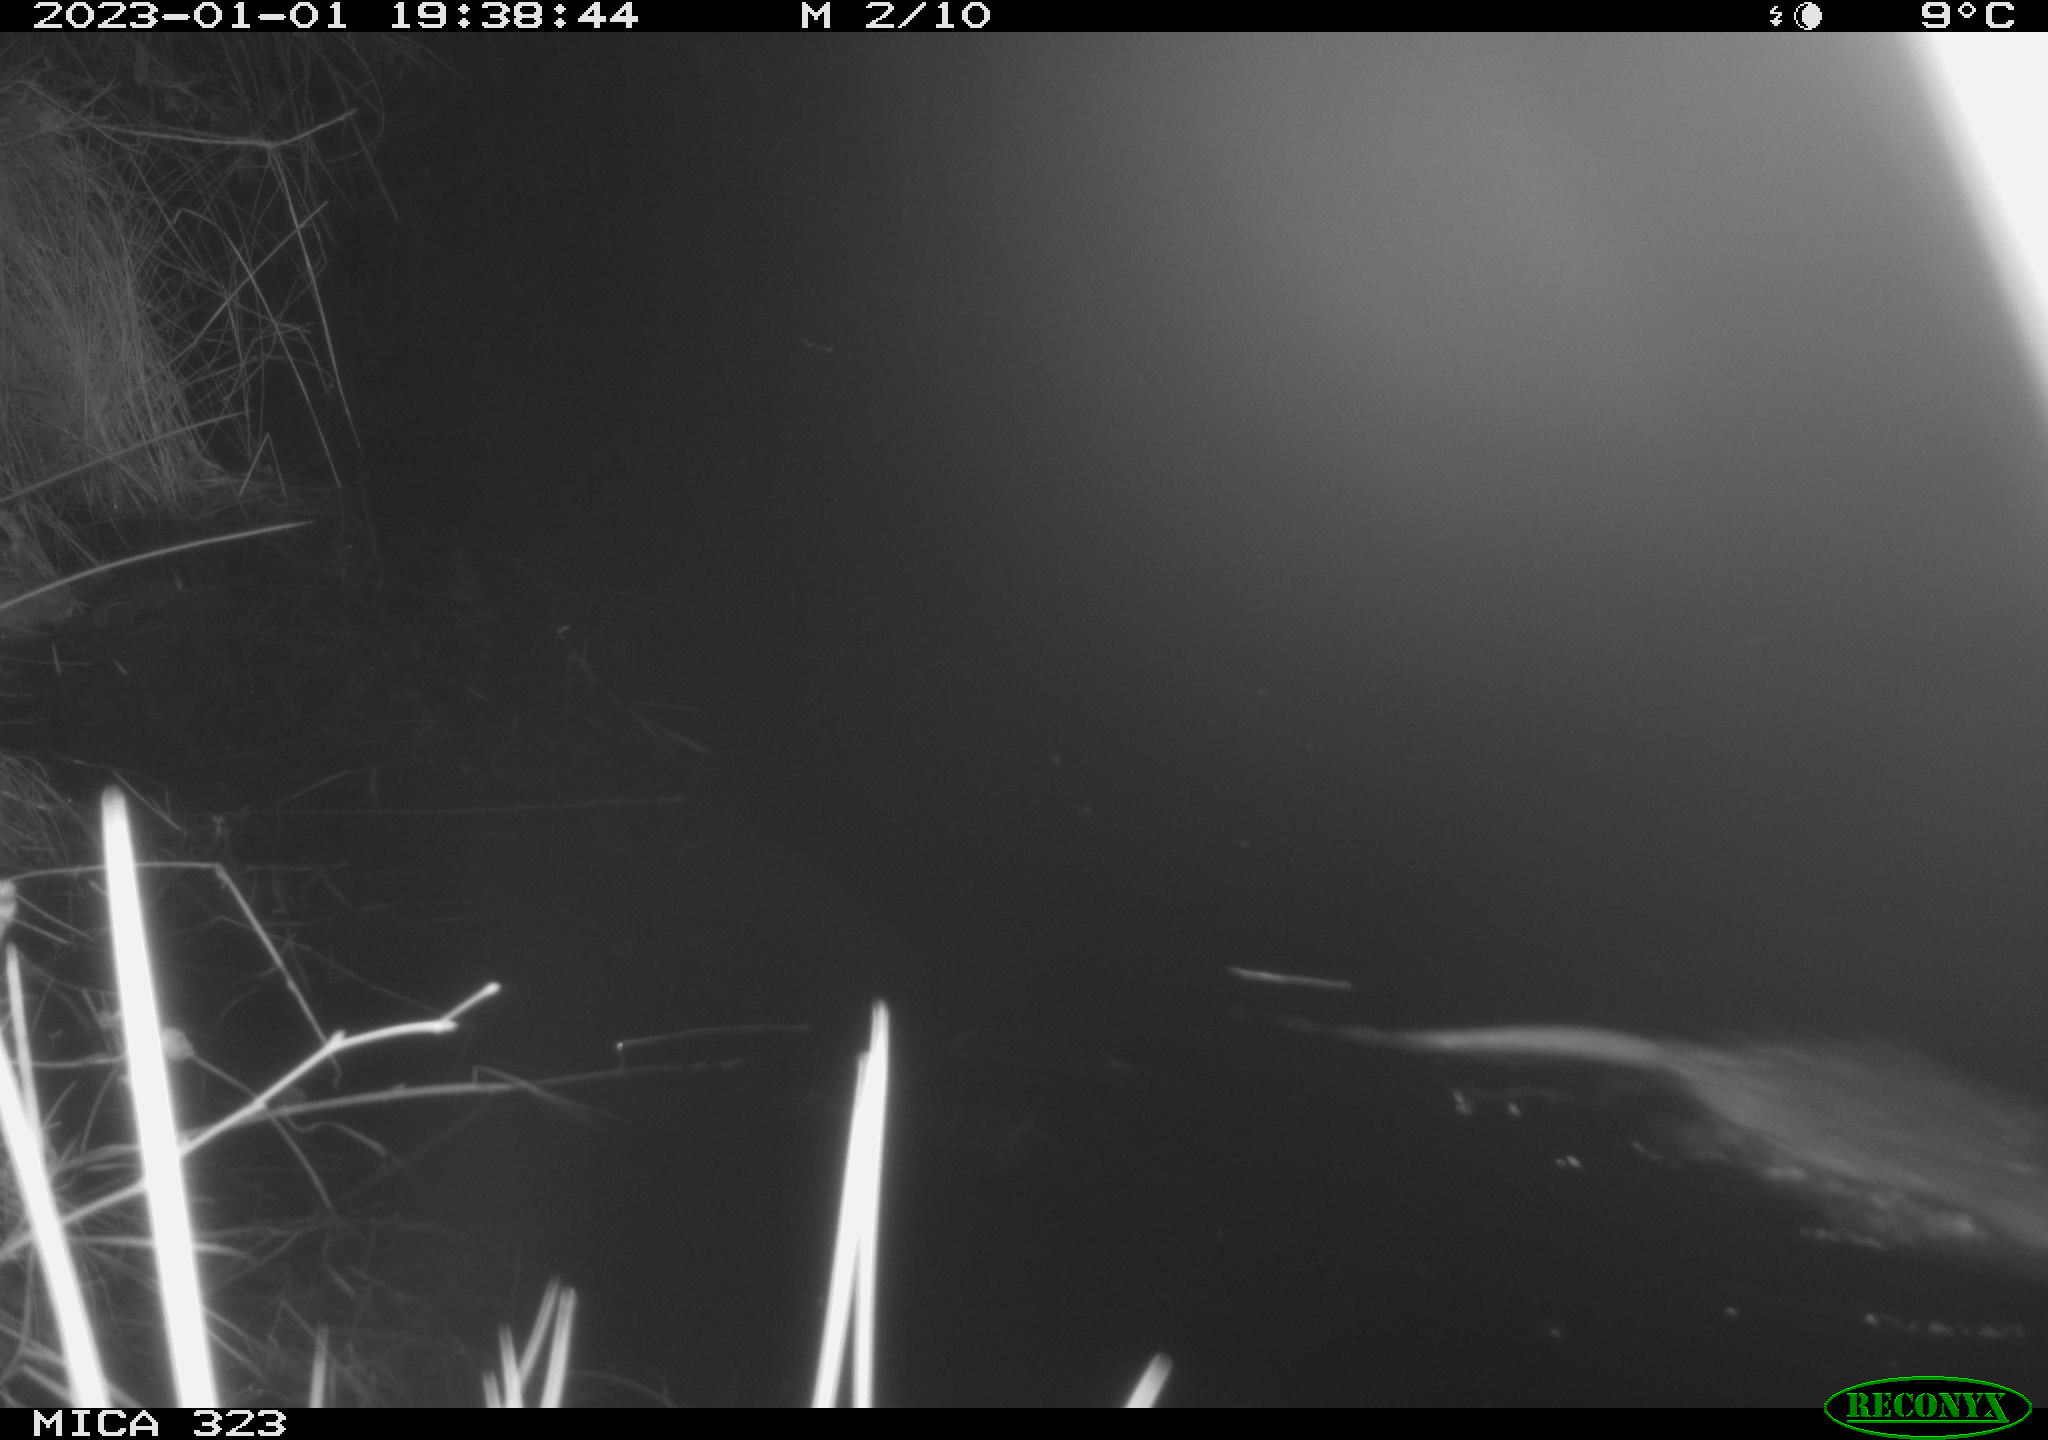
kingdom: Animalia
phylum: Chordata
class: Mammalia
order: Rodentia
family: Cricetidae
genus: Ondatra
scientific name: Ondatra zibethicus
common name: Muskrat
